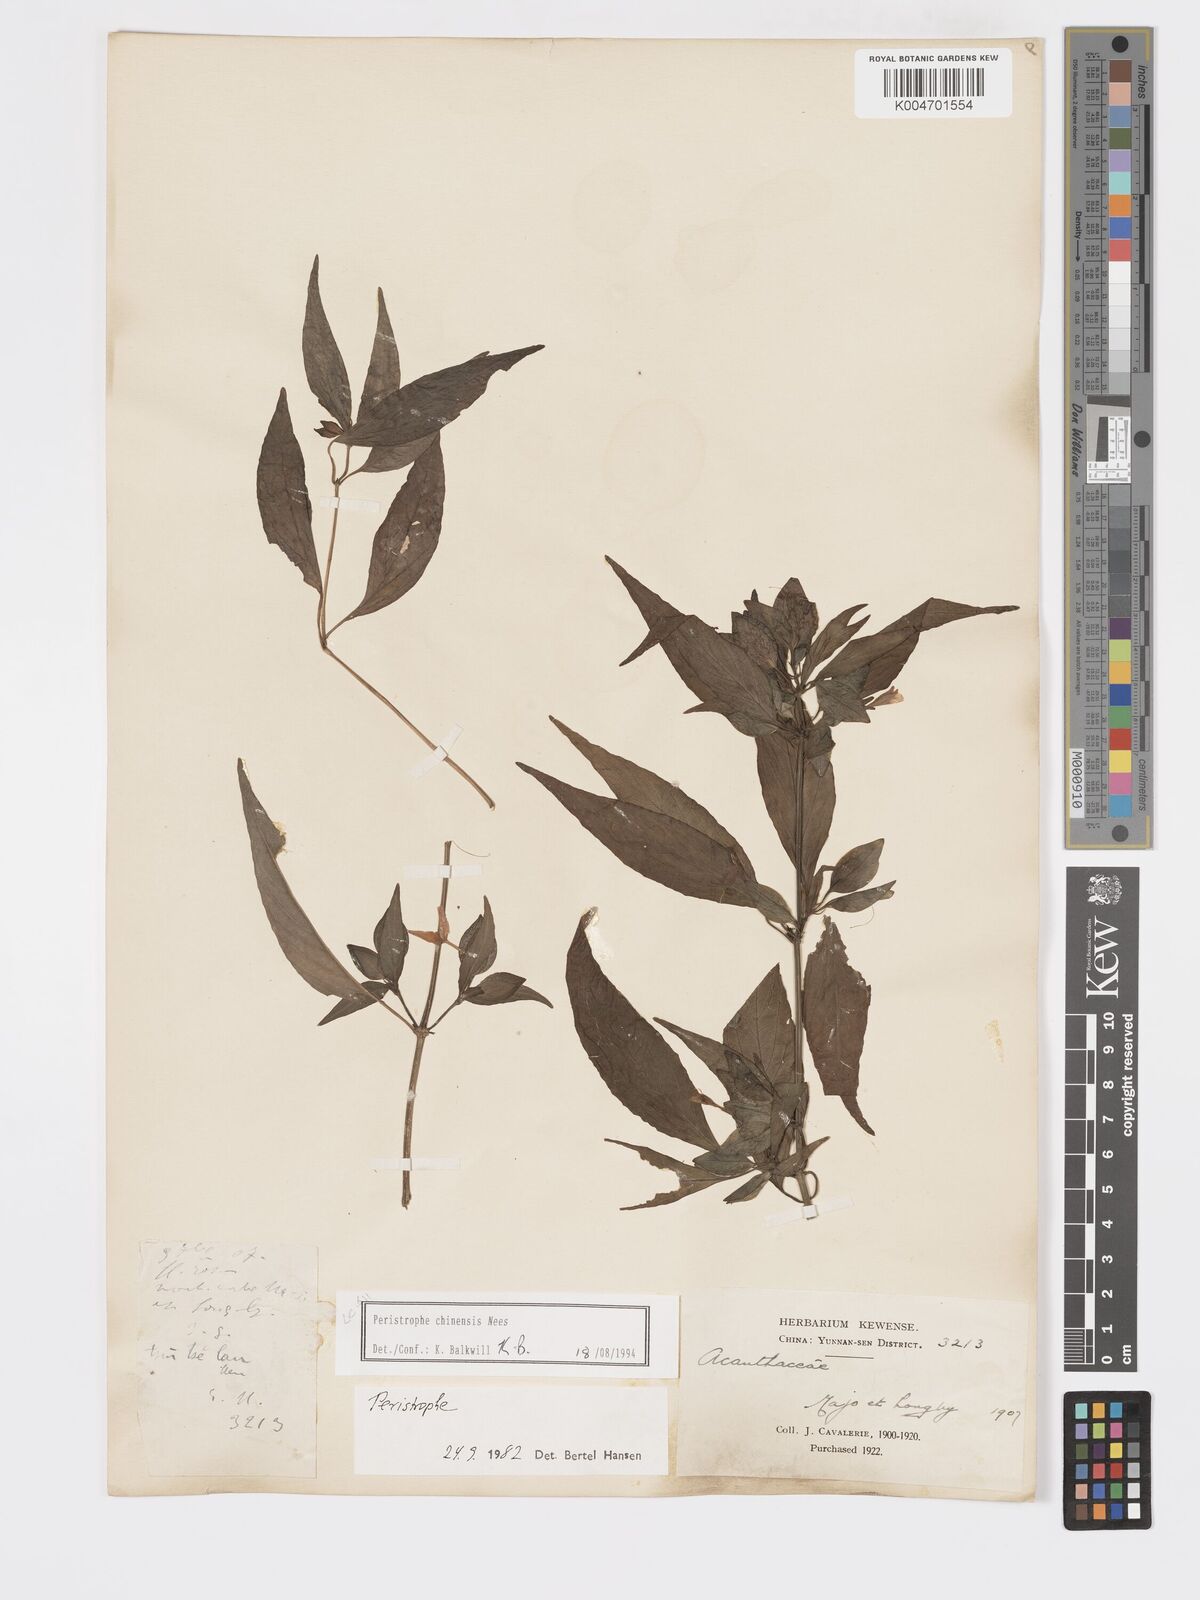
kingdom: Plantae
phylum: Tracheophyta
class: Magnoliopsida
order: Lamiales
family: Acanthaceae
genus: Dicliptera
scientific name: Dicliptera chinensis
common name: Chinese foldwing
